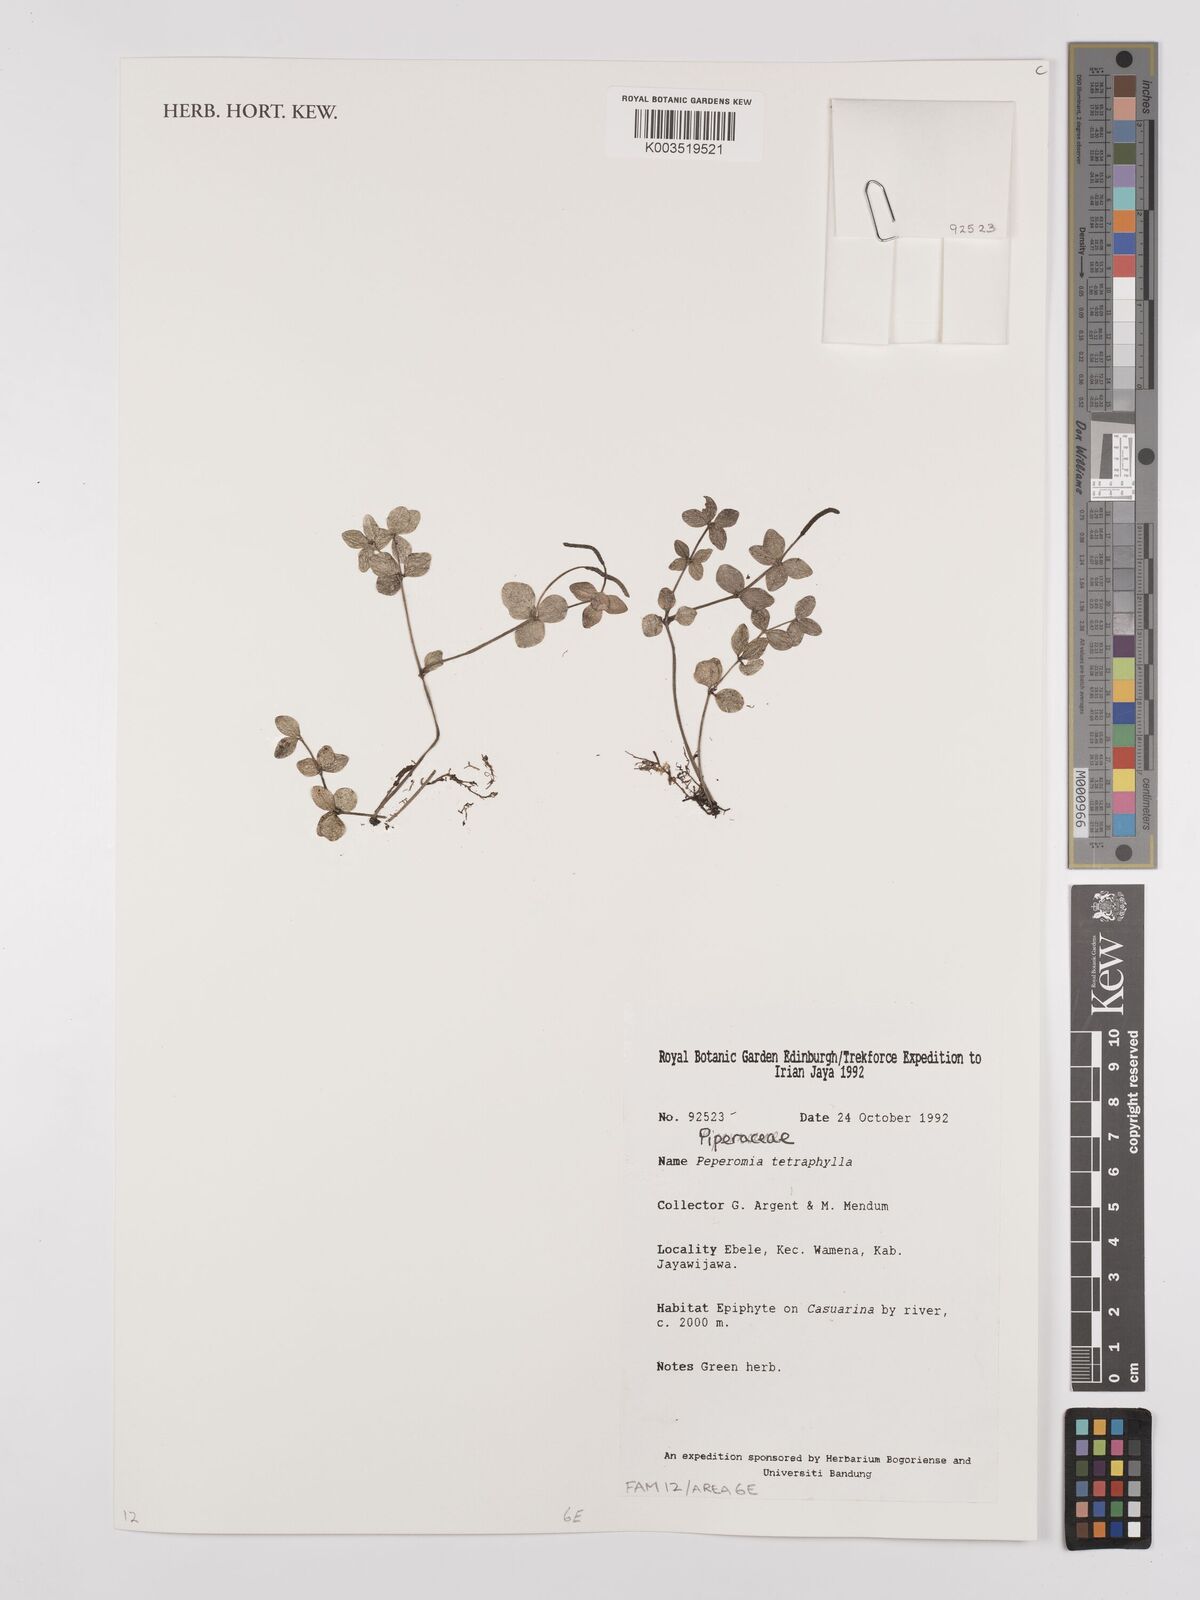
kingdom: Plantae
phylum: Tracheophyta
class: Magnoliopsida
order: Piperales
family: Piperaceae
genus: Peperomia
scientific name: Peperomia tetraphylla
